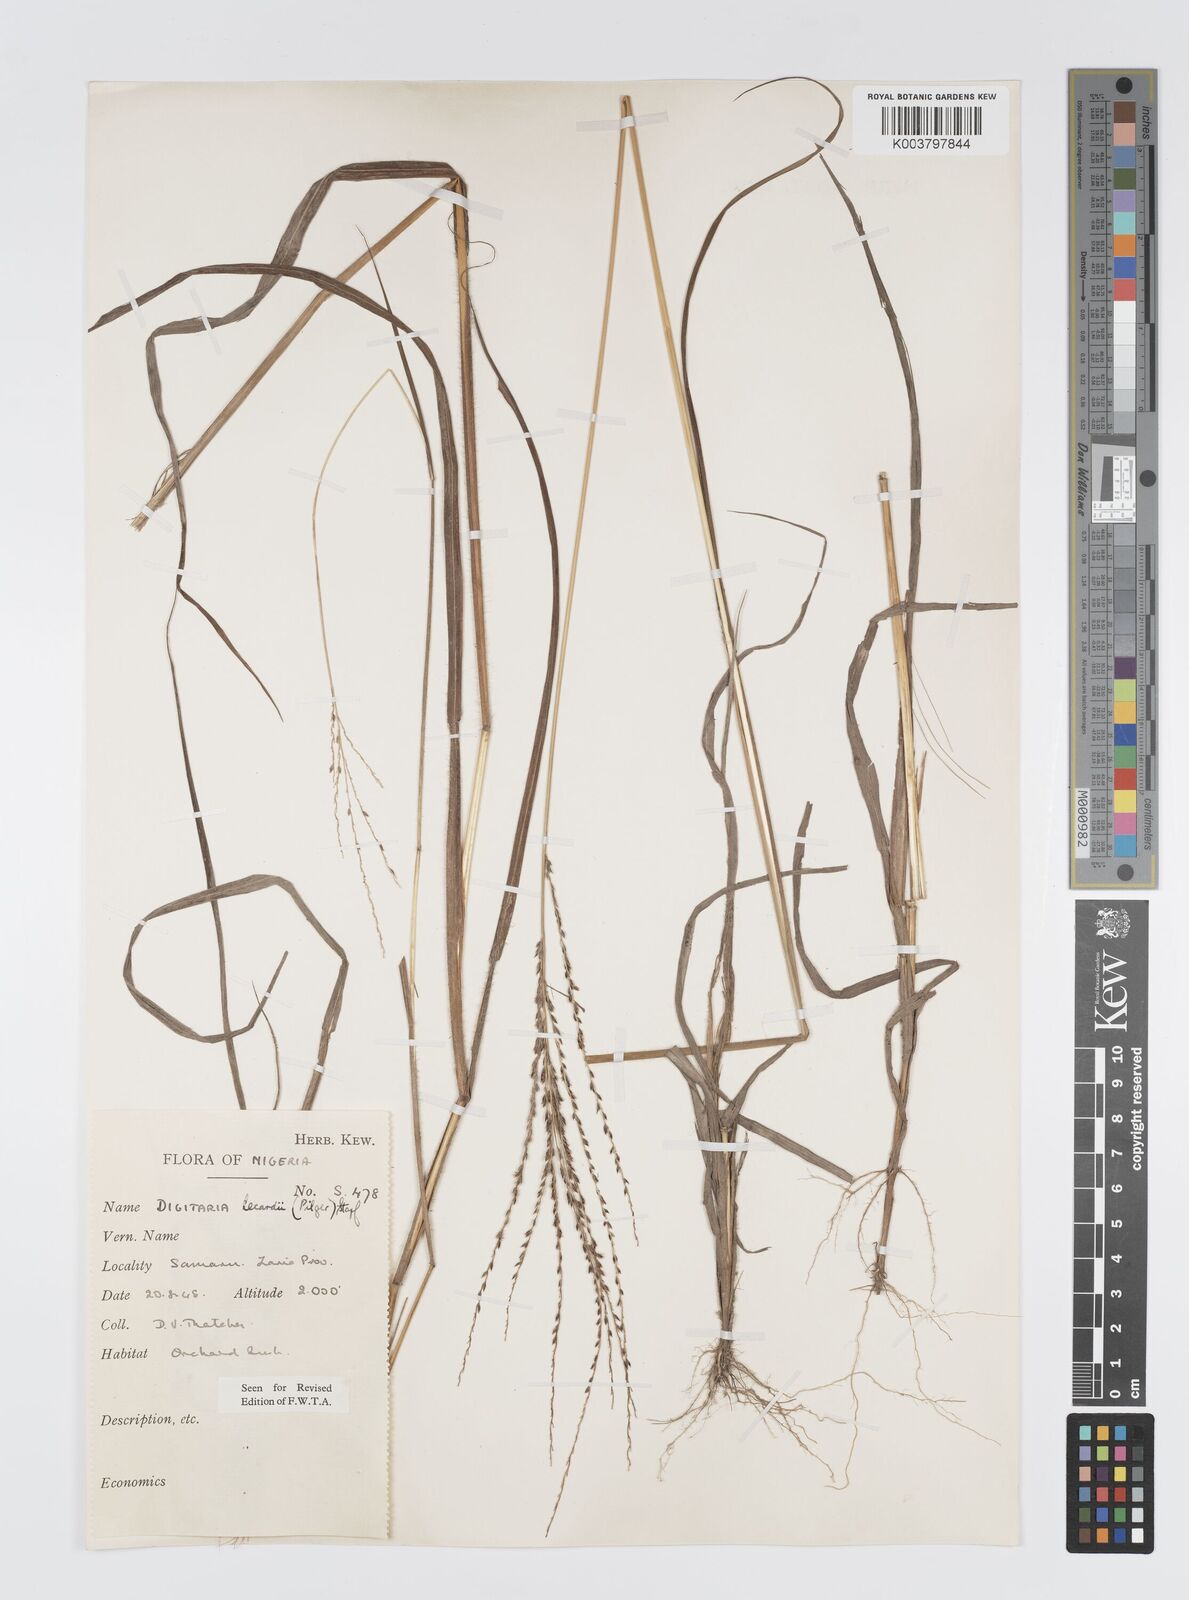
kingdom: Plantae
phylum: Tracheophyta
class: Liliopsida
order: Poales
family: Poaceae
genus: Digitaria
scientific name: Digitaria argillacea
